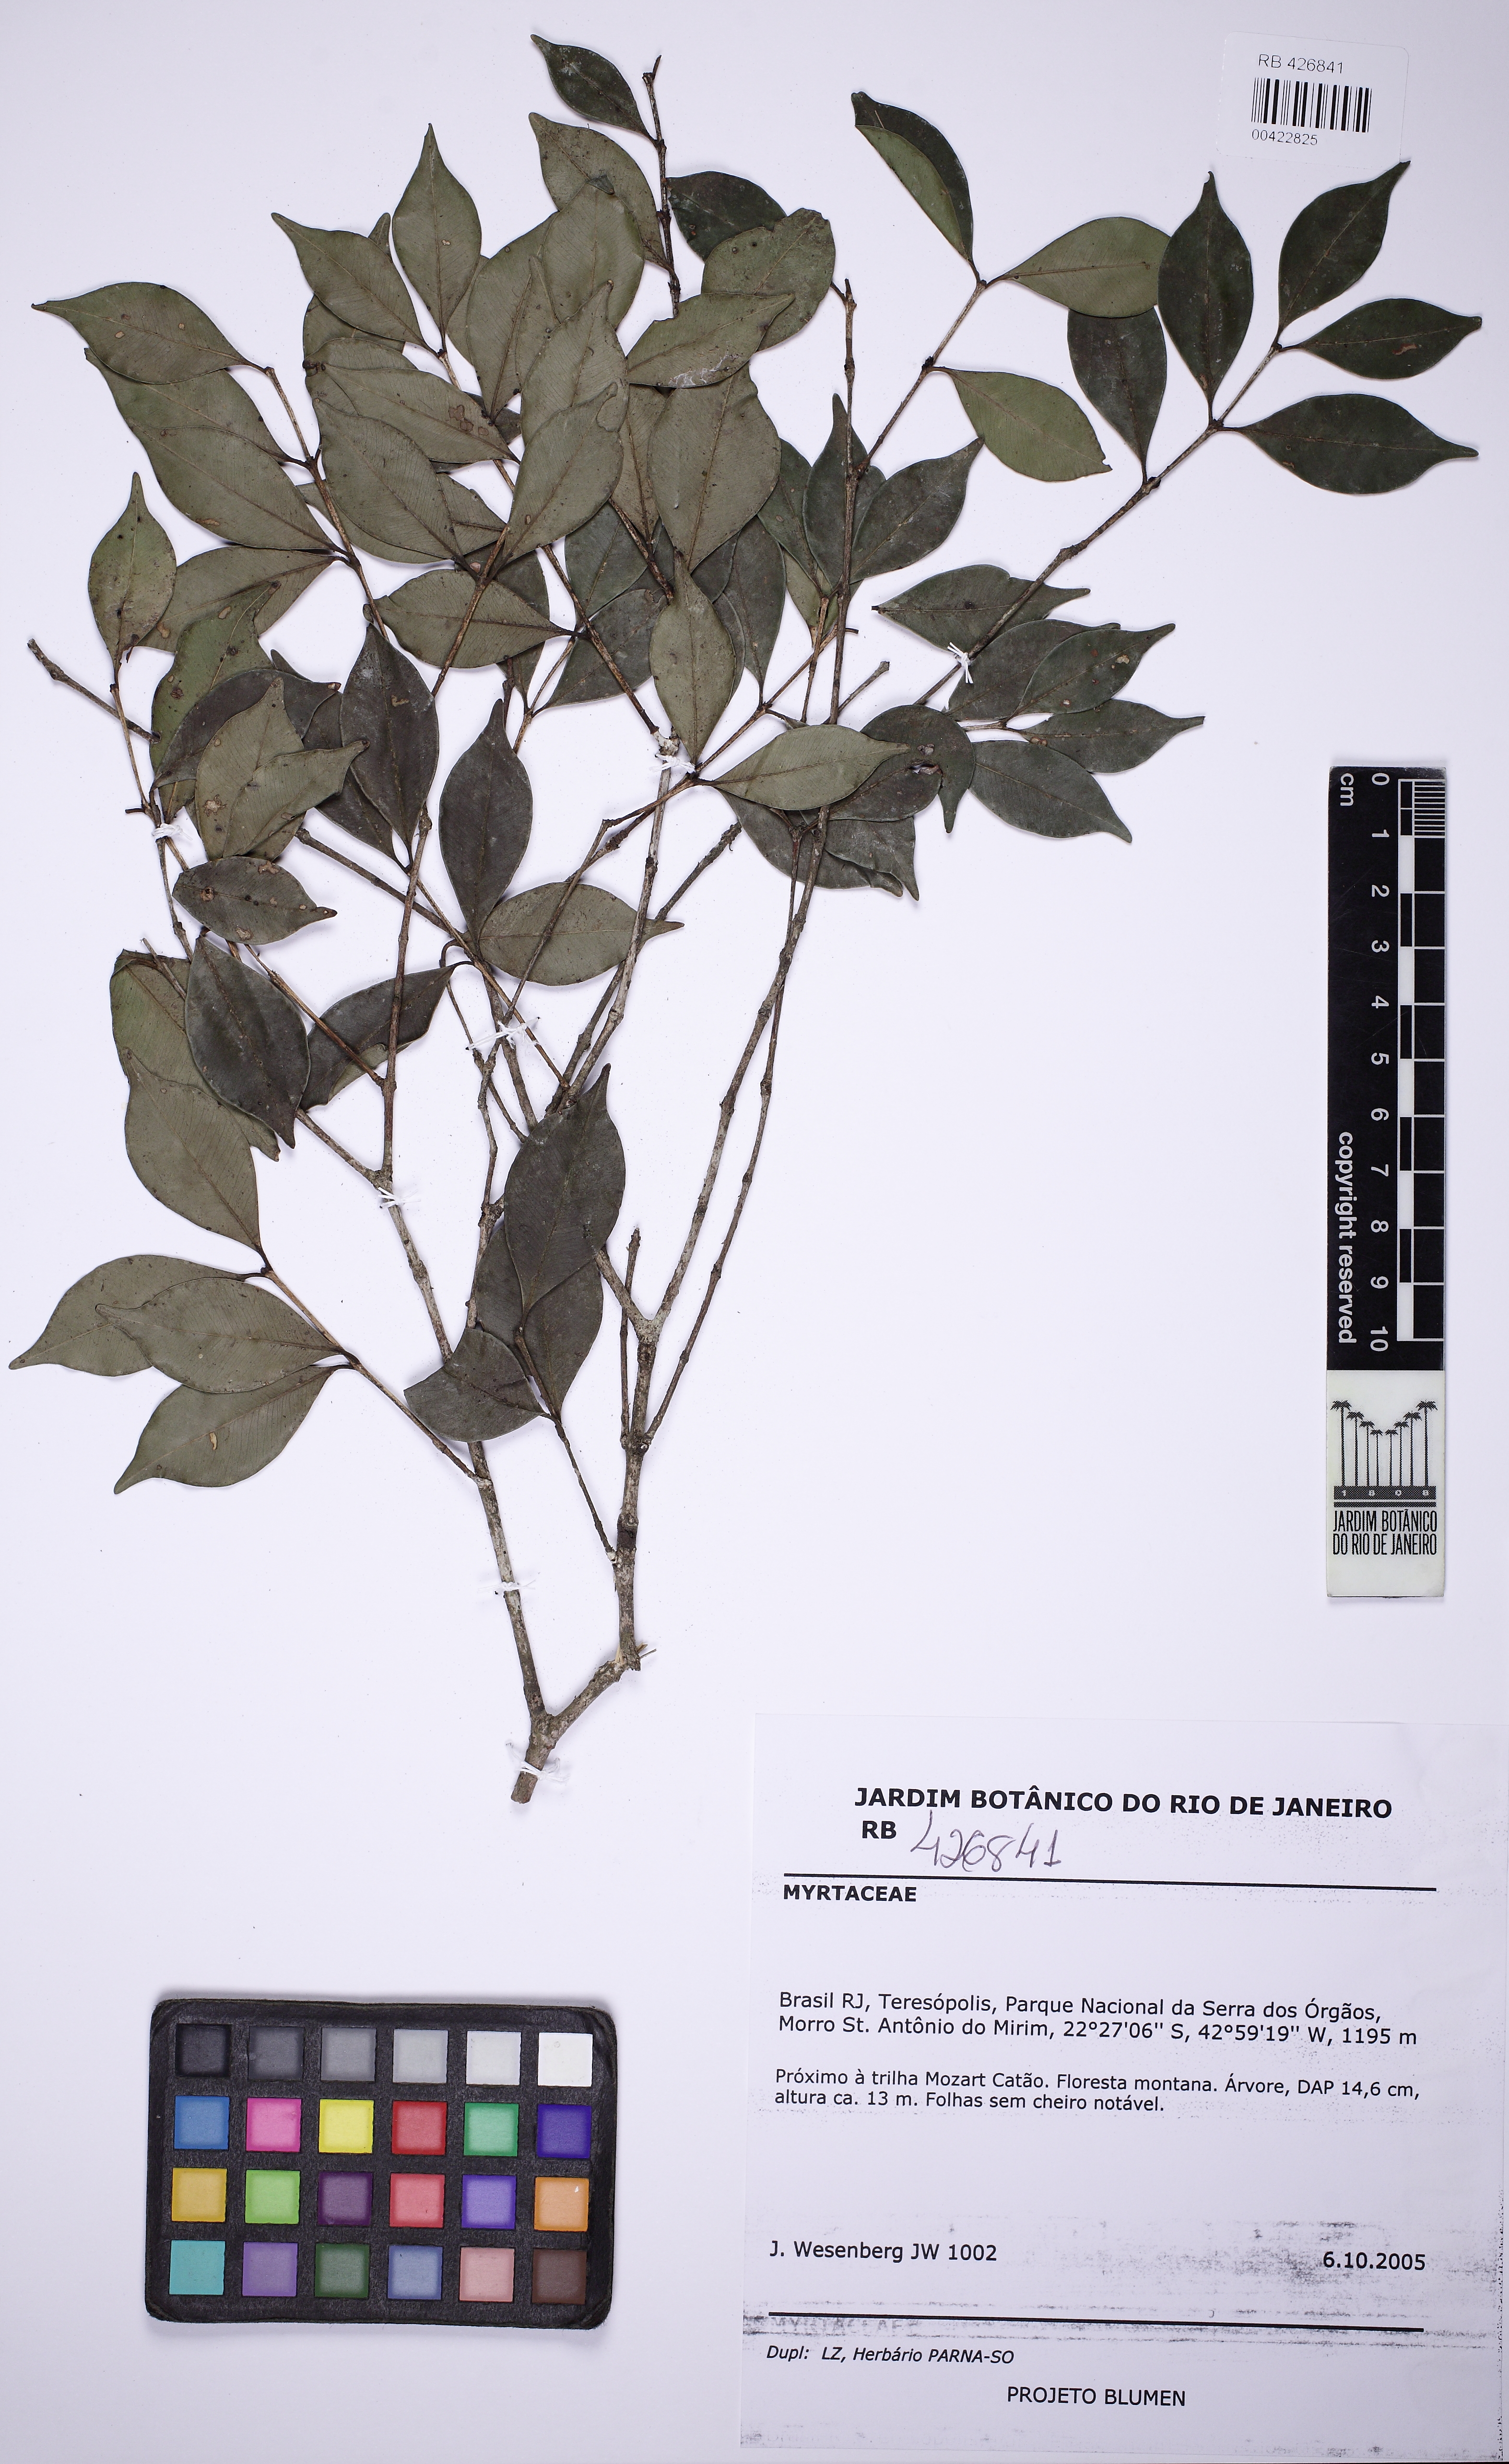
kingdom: Plantae
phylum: Tracheophyta
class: Magnoliopsida
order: Myrtales
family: Myrtaceae
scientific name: Myrtaceae
